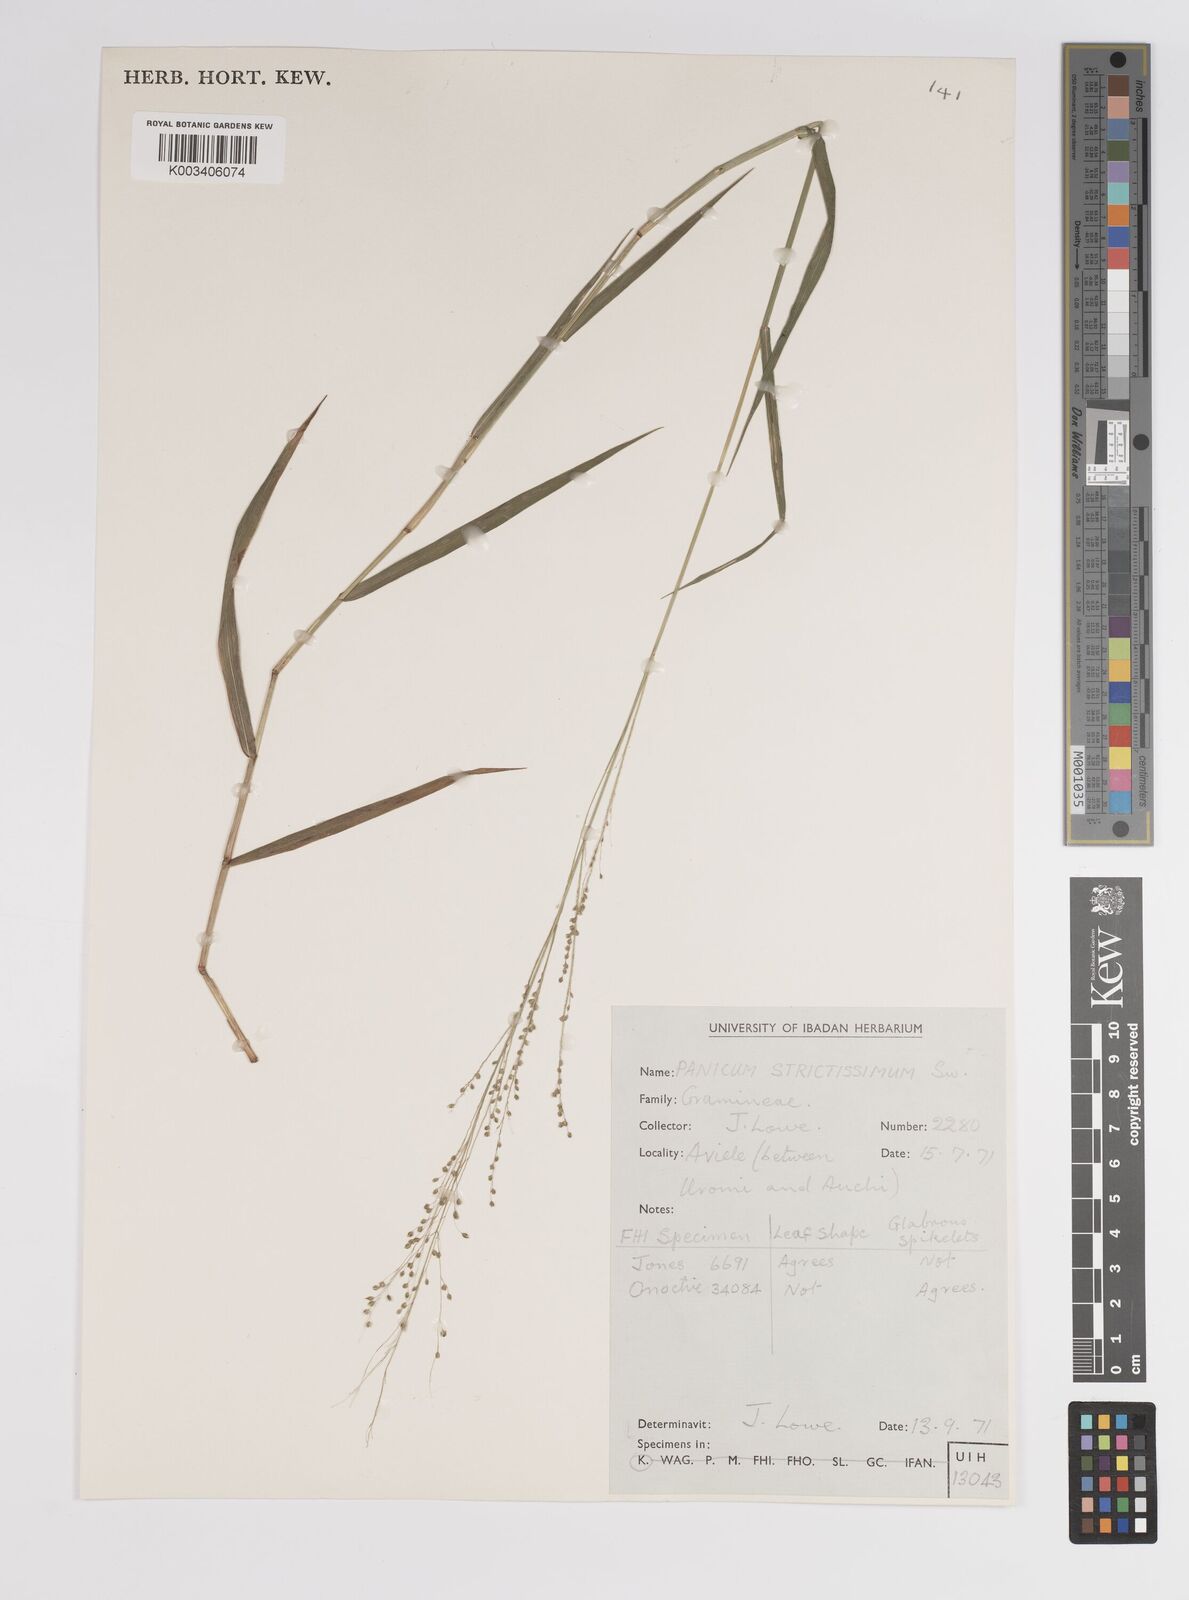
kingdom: Plantae
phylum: Tracheophyta
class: Liliopsida
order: Poales
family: Poaceae
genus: Panicum
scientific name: Panicum eickii
